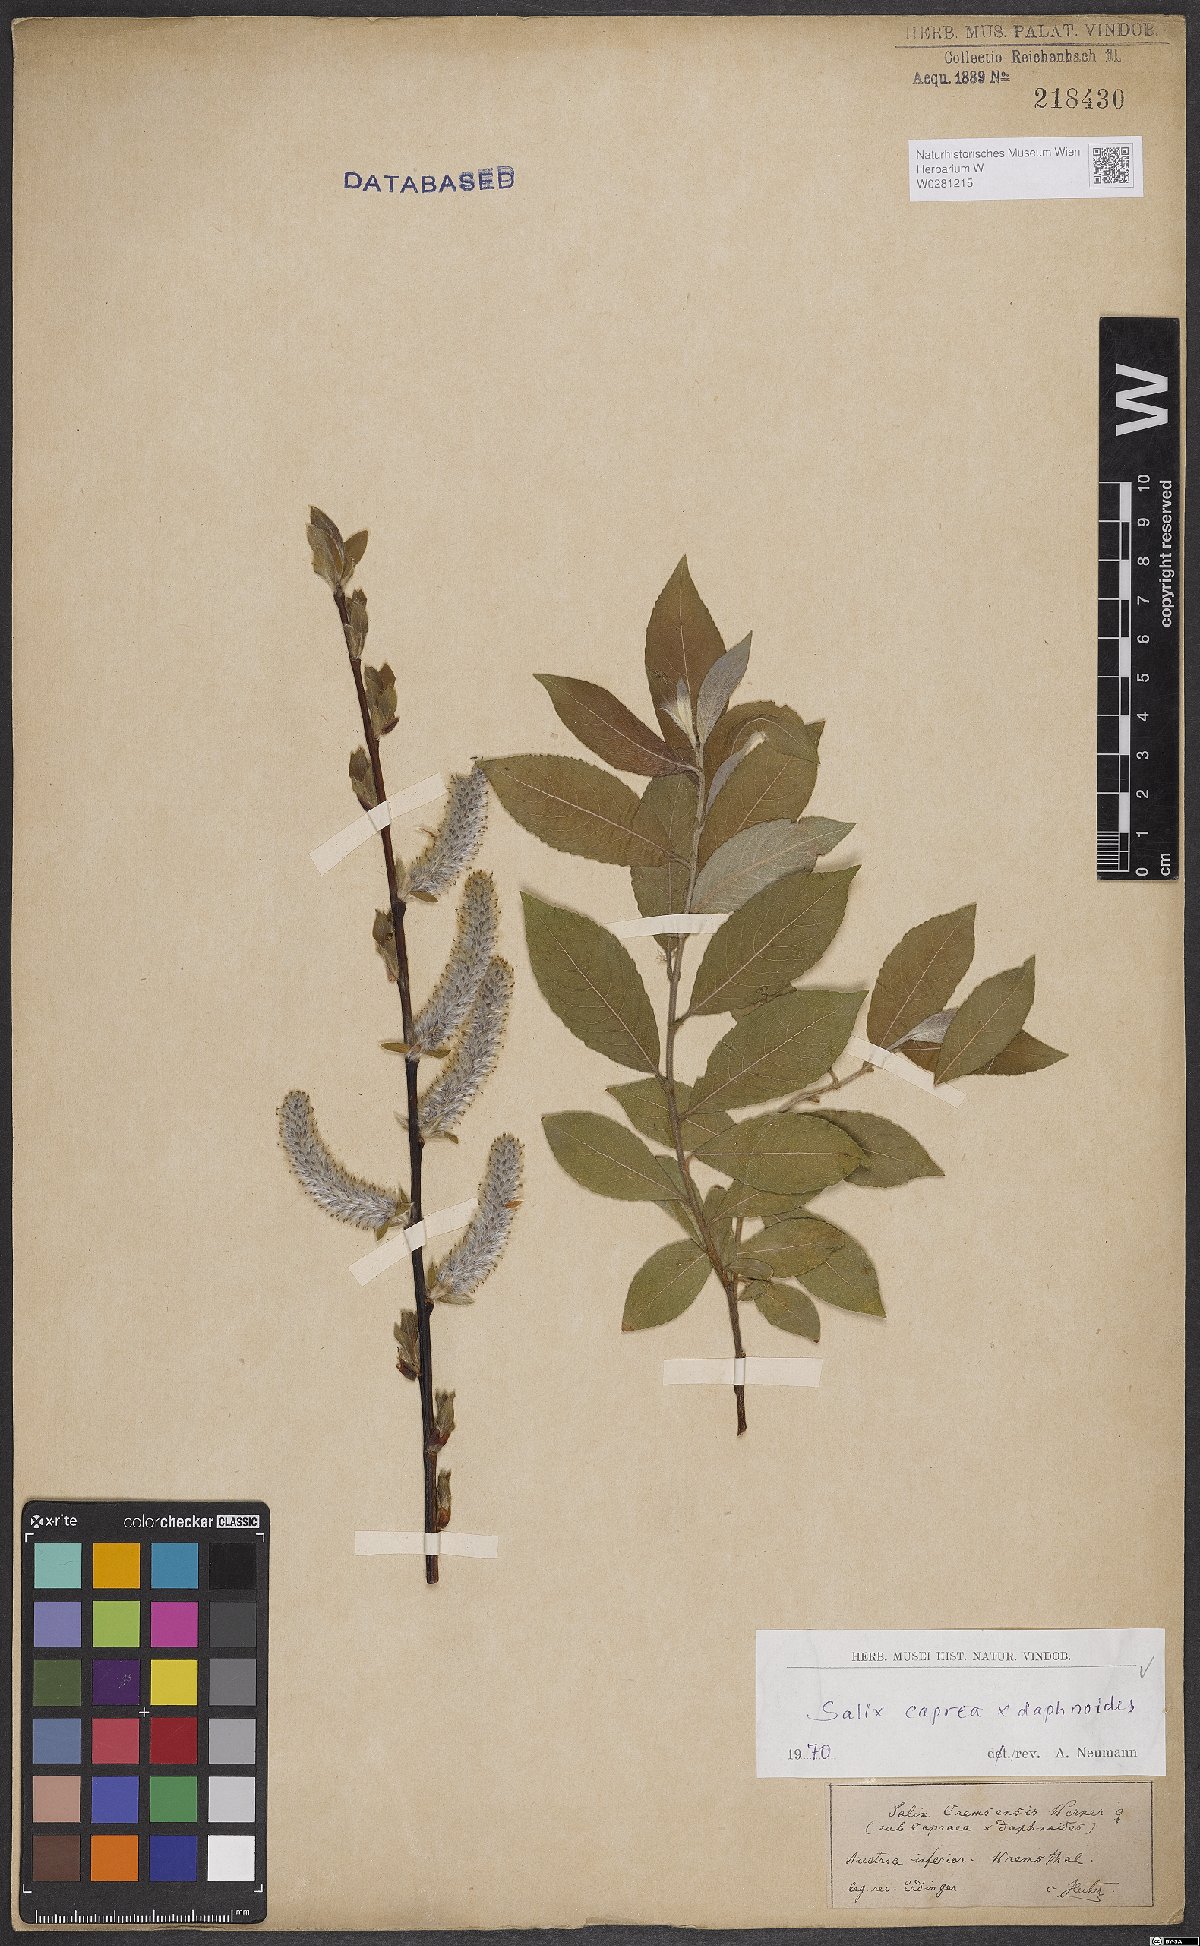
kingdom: Plantae
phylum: Tracheophyta
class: Magnoliopsida
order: Malpighiales
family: Salicaceae
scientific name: Salicaceae
